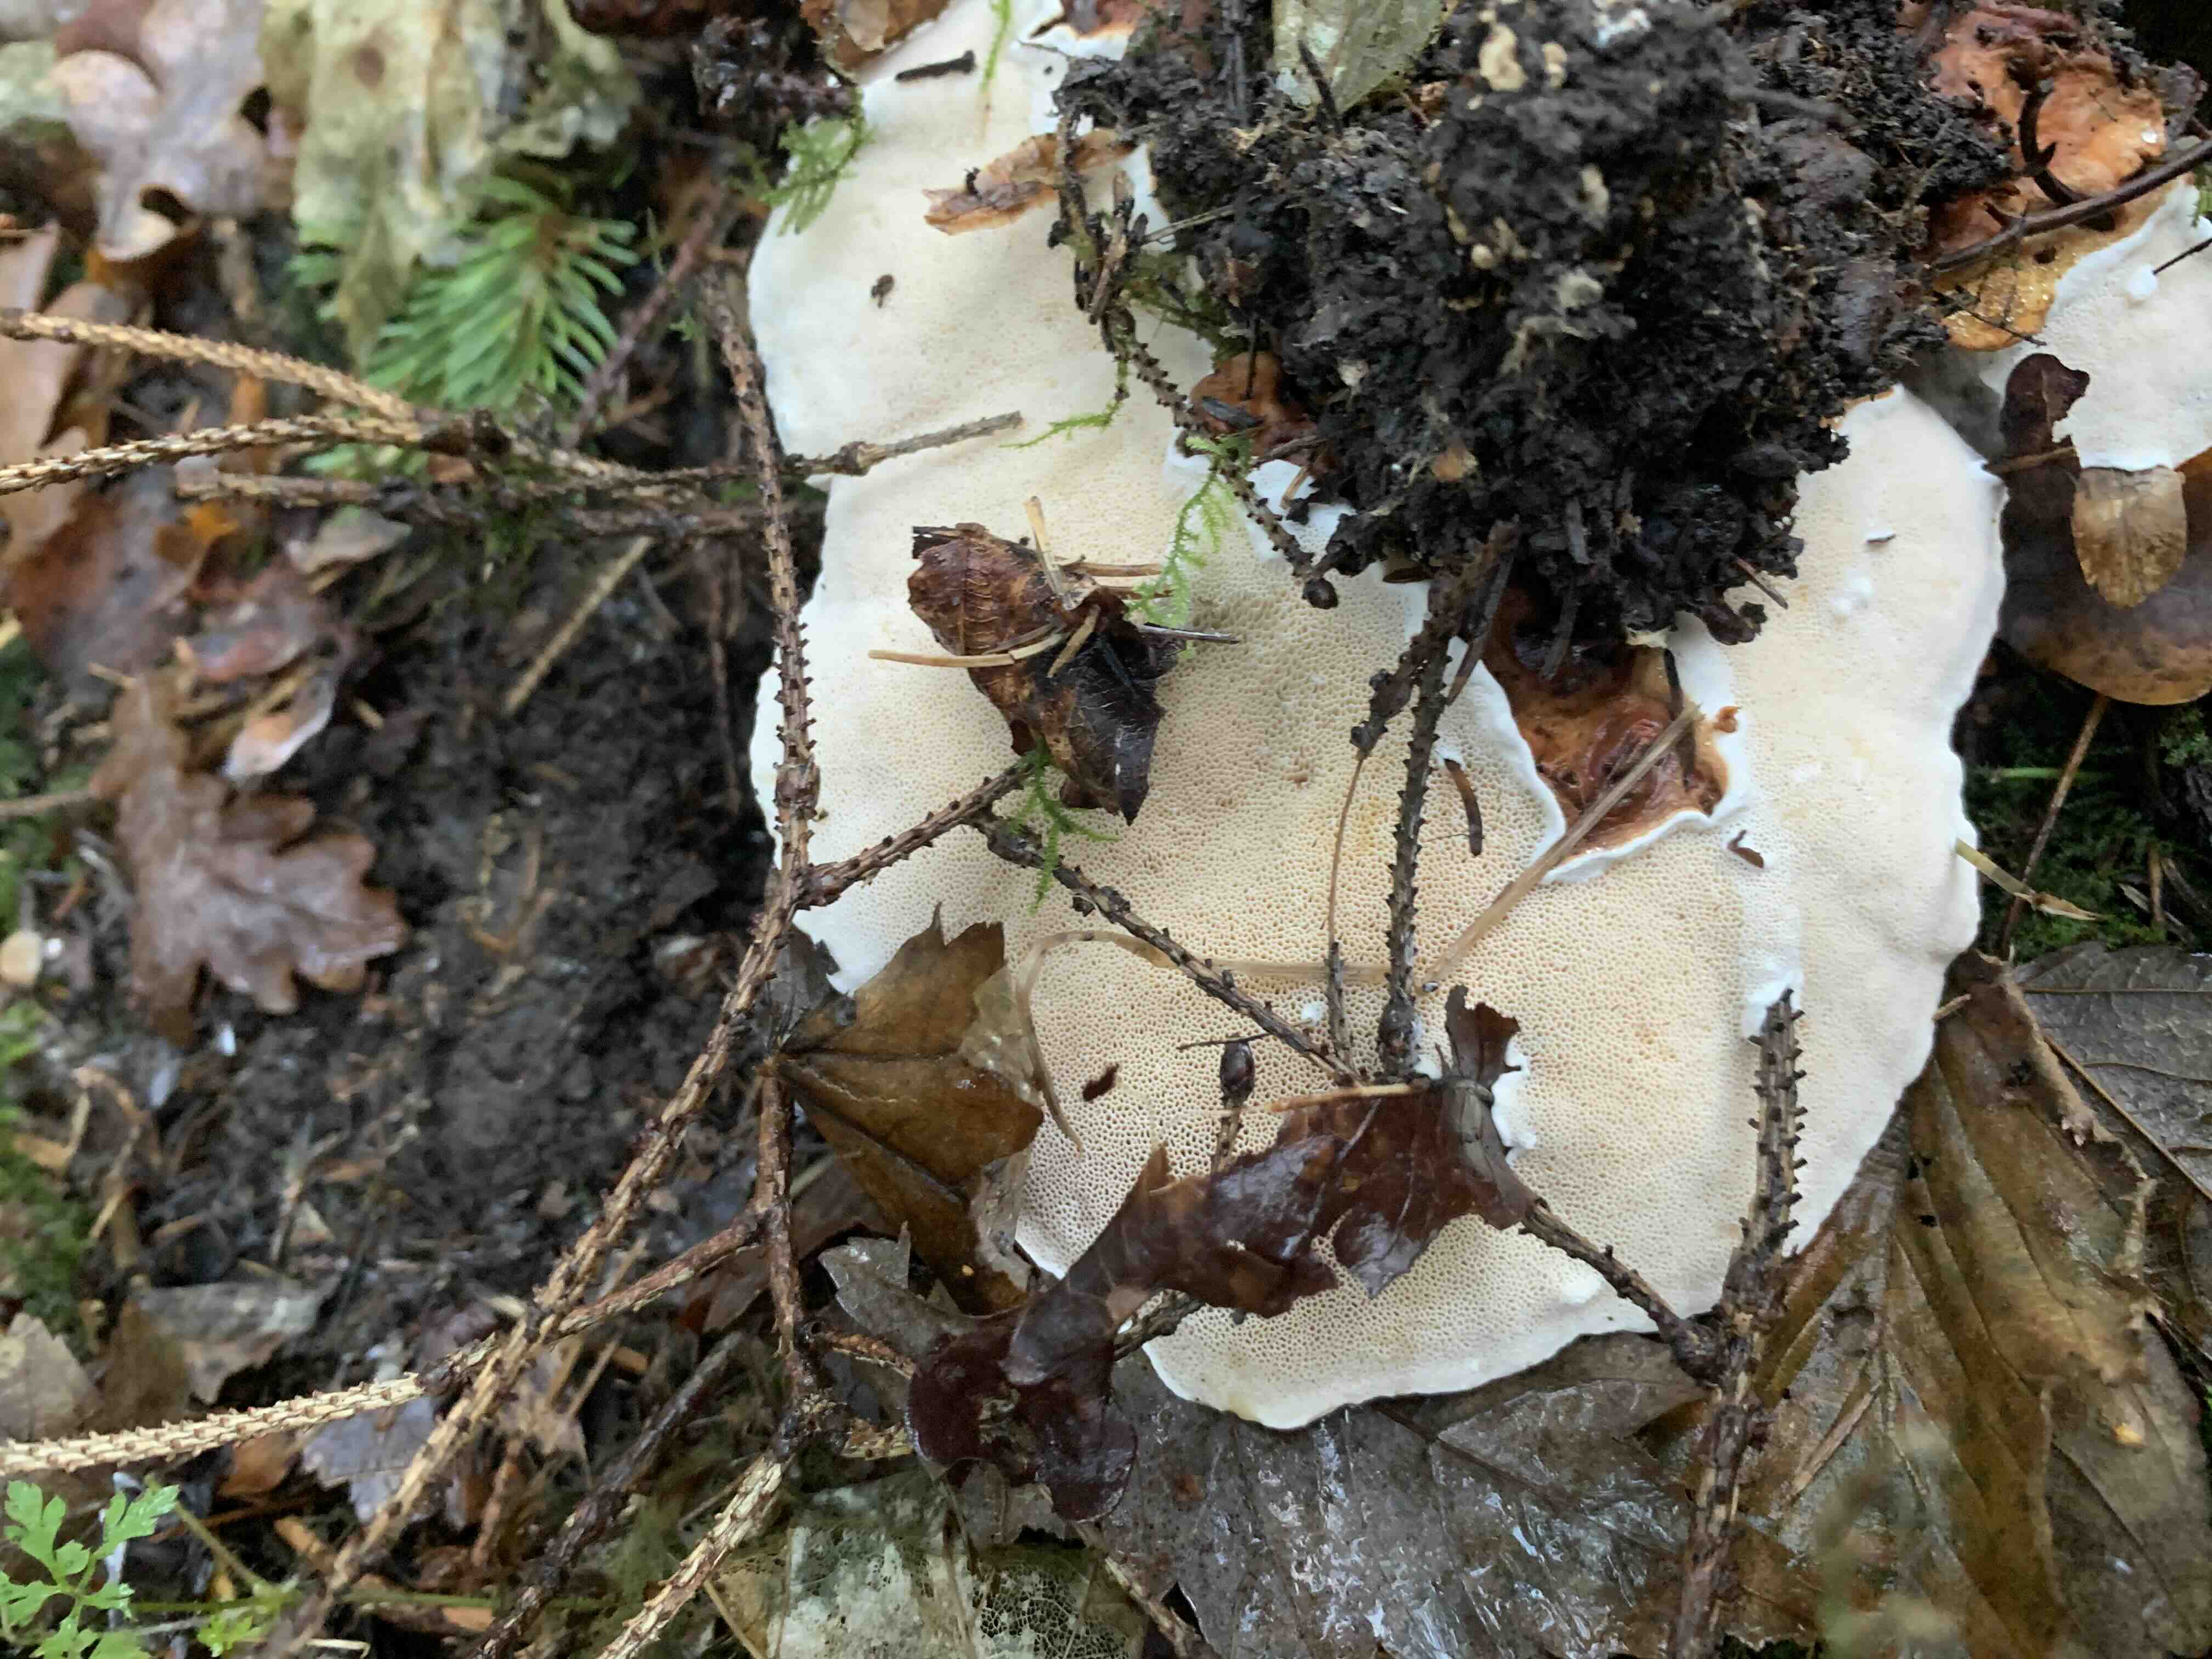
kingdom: Fungi
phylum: Basidiomycota
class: Agaricomycetes
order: Russulales
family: Bondarzewiaceae
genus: Heterobasidion
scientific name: Heterobasidion
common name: rodfordærver
